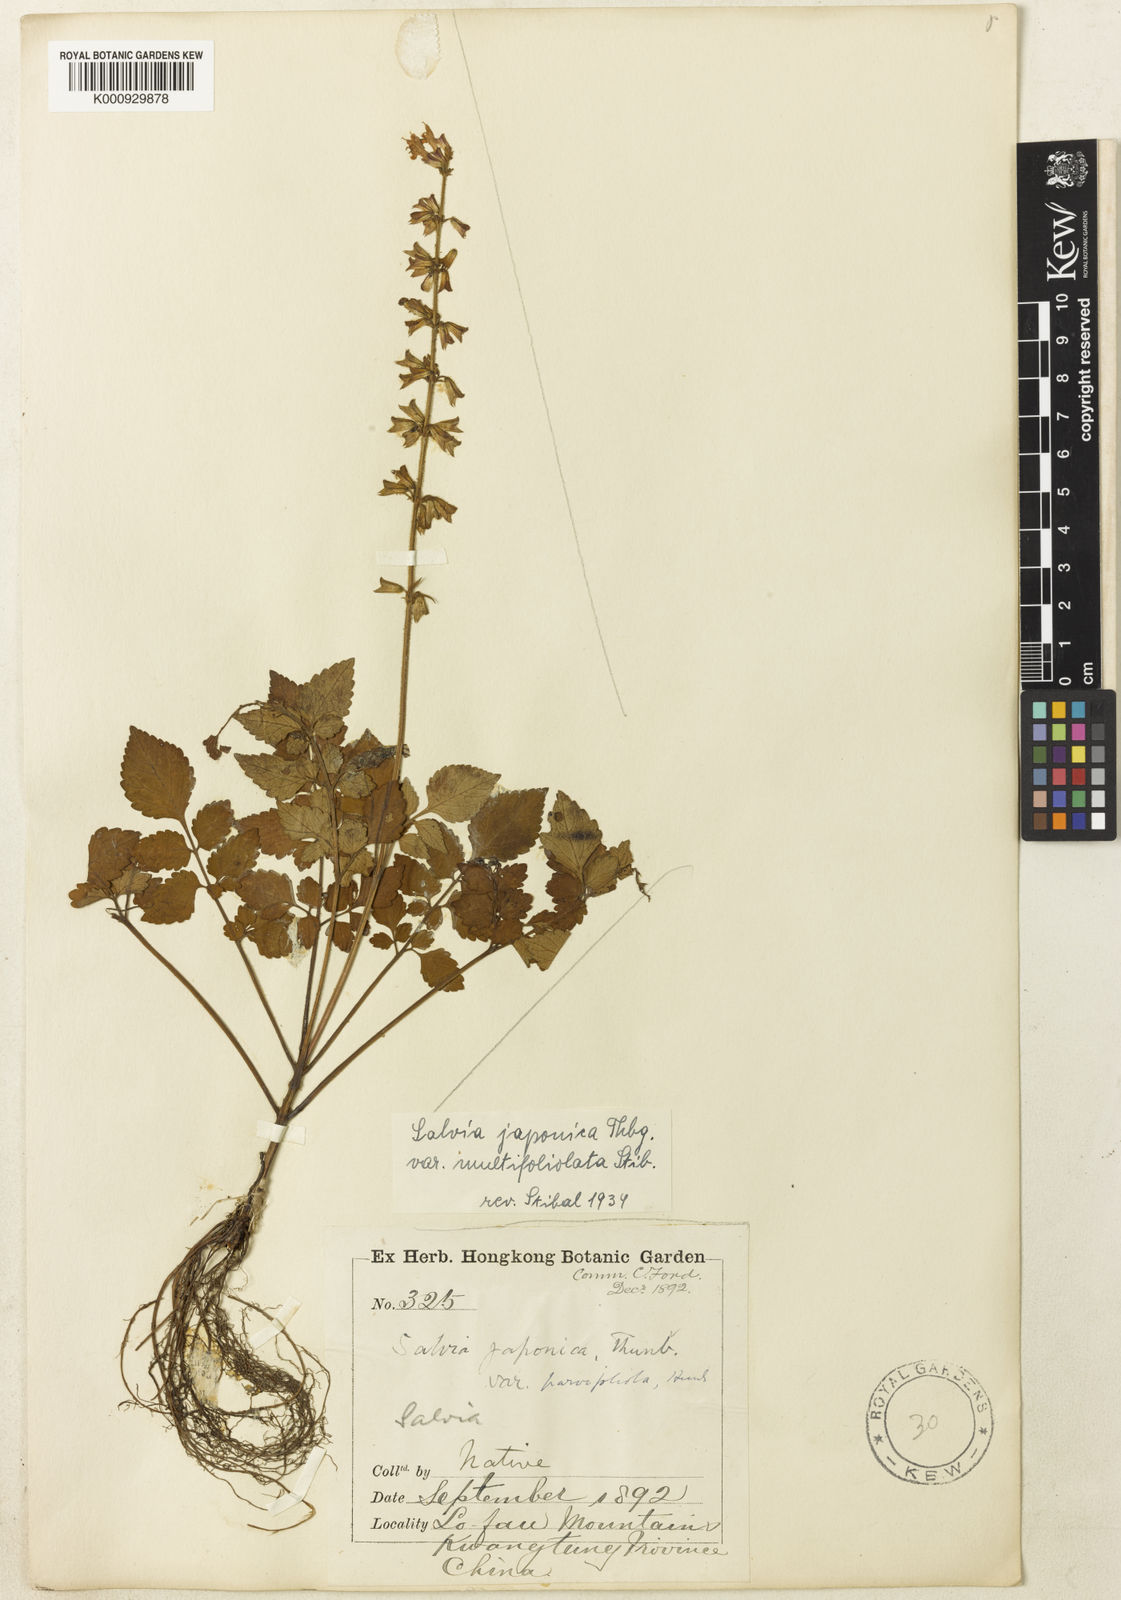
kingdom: Plantae
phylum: Tracheophyta
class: Magnoliopsida
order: Lamiales
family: Lamiaceae
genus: Salvia
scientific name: Salvia japonica
